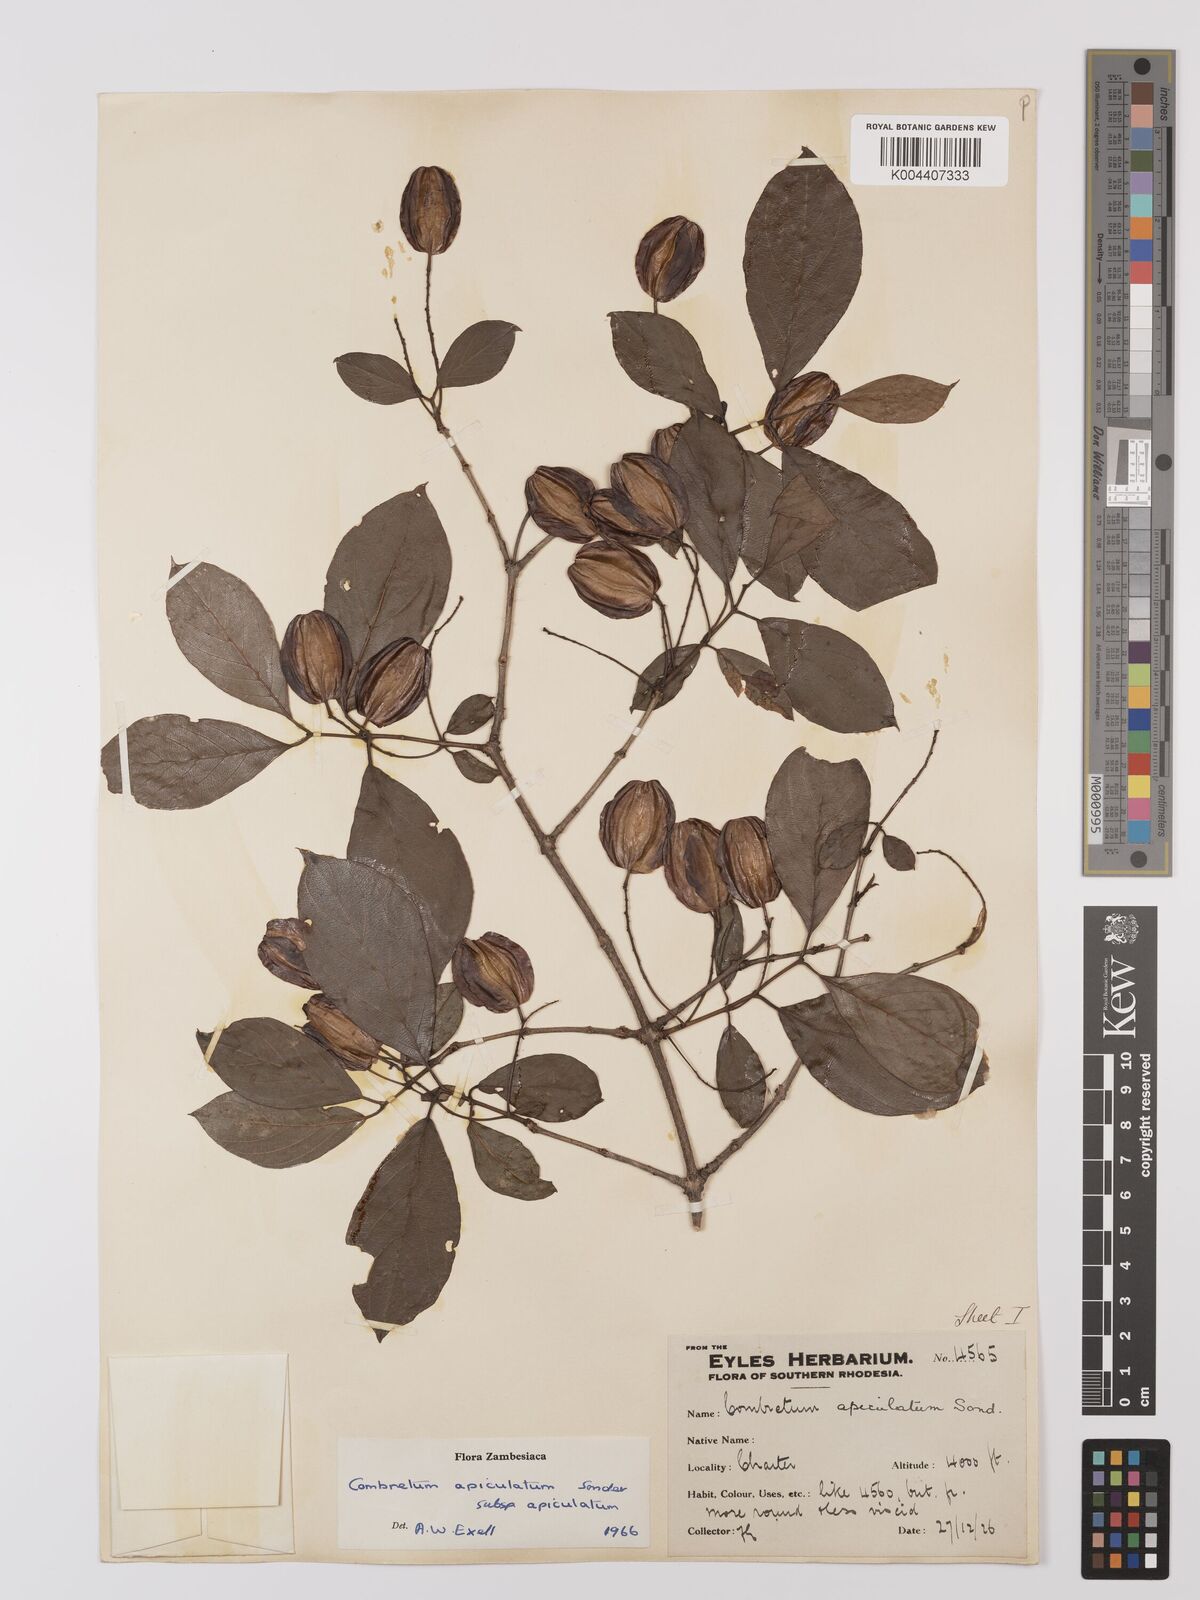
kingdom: Plantae
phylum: Tracheophyta
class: Magnoliopsida
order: Myrtales
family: Combretaceae
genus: Combretum
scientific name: Combretum apiculatum
